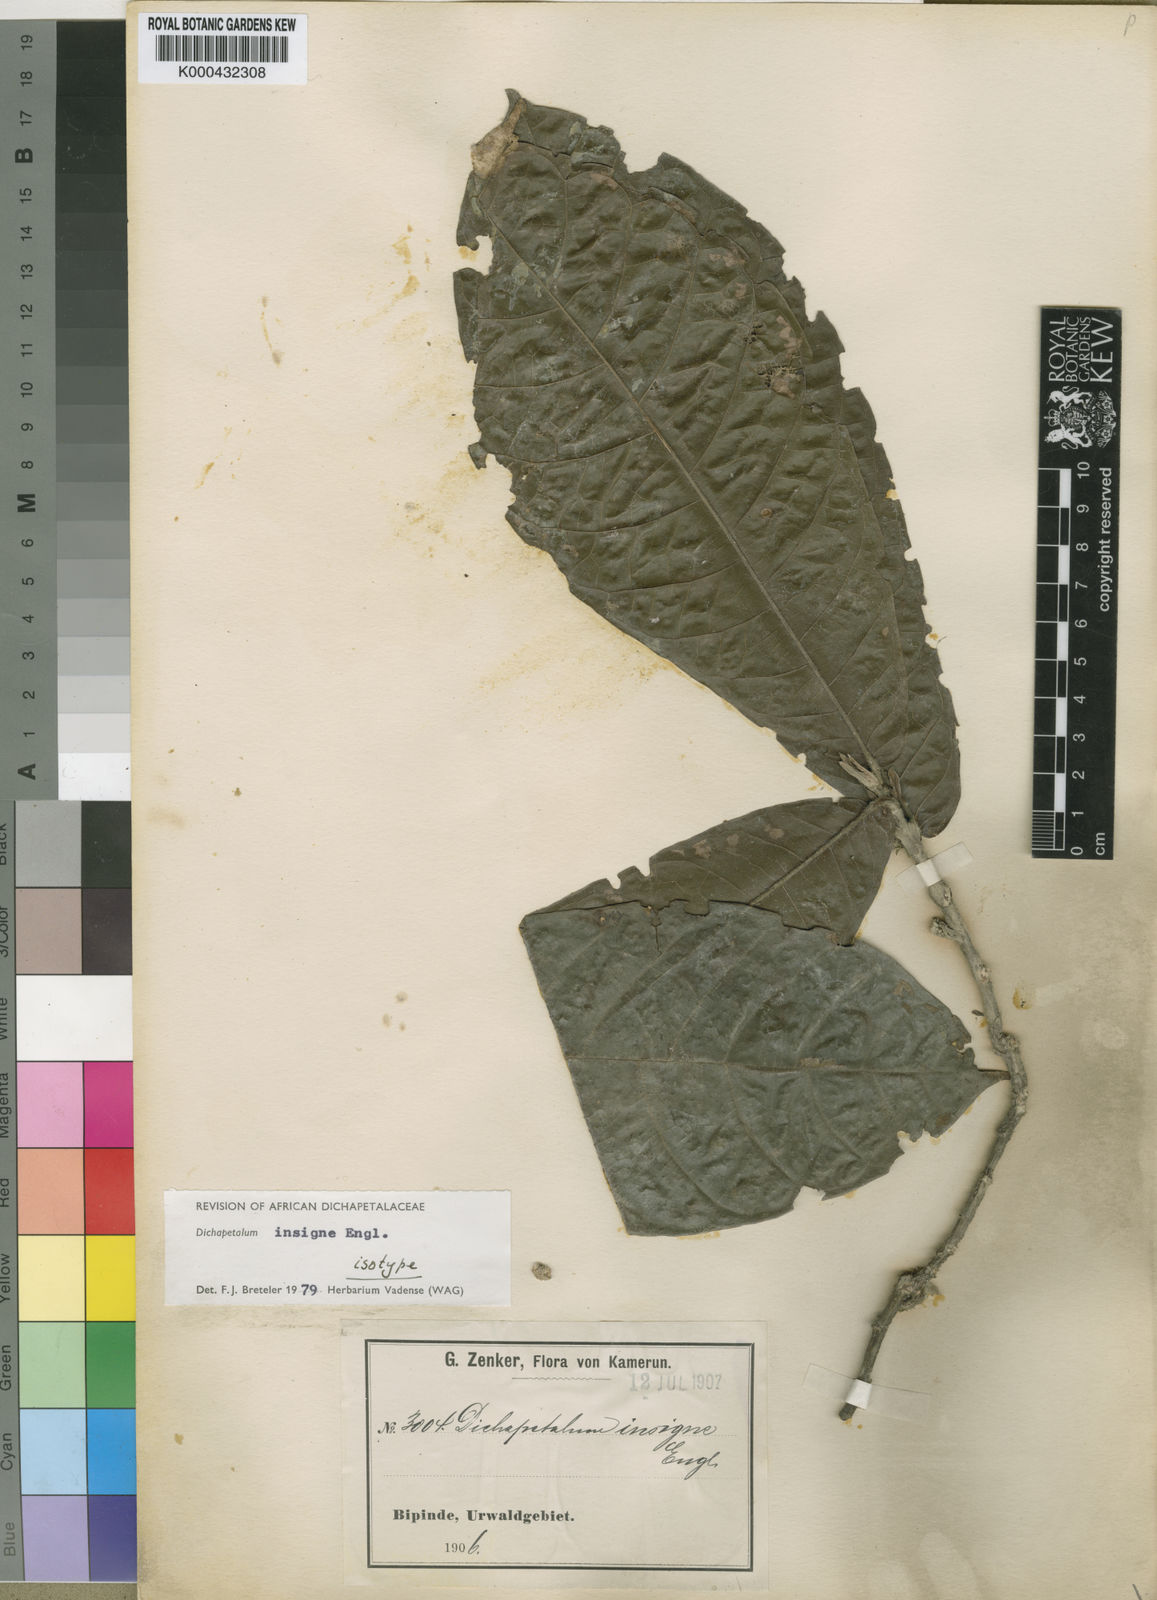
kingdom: Plantae
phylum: Tracheophyta
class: Magnoliopsida
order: Malpighiales
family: Dichapetalaceae
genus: Dichapetalum
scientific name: Dichapetalum insigne
